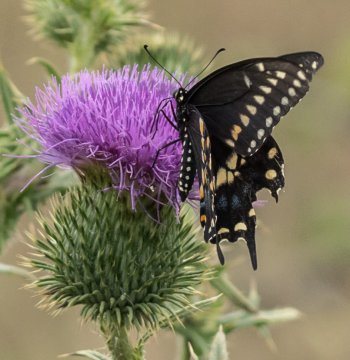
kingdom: Animalia
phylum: Arthropoda
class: Insecta
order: Lepidoptera
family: Papilionidae
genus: Papilio
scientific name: Papilio polyxenes
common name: Black Swallowtail
